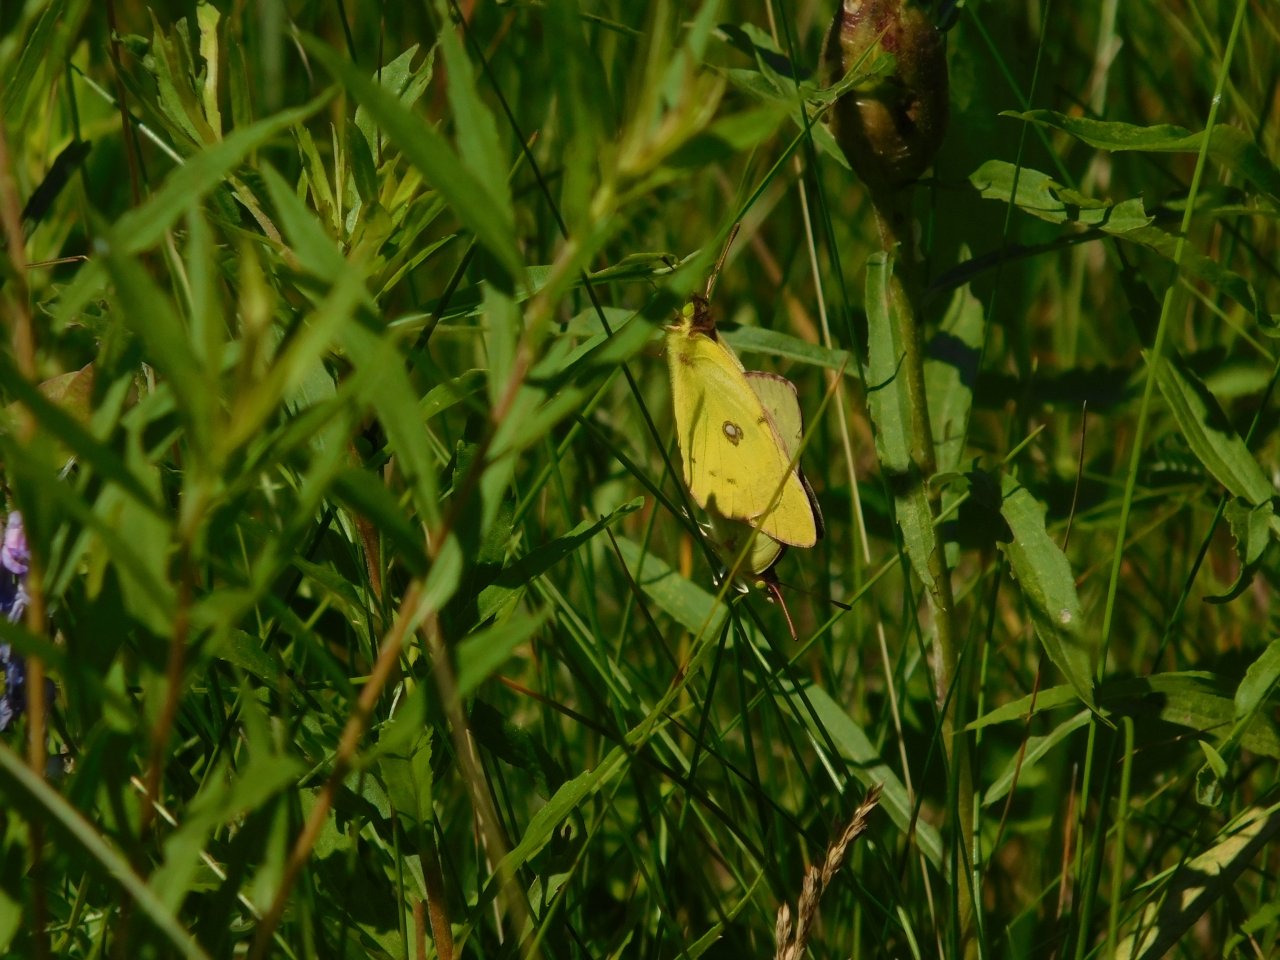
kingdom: Animalia
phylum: Arthropoda
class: Insecta
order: Lepidoptera
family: Pieridae
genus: Colias
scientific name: Colias philodice
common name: Clouded Sulphur
